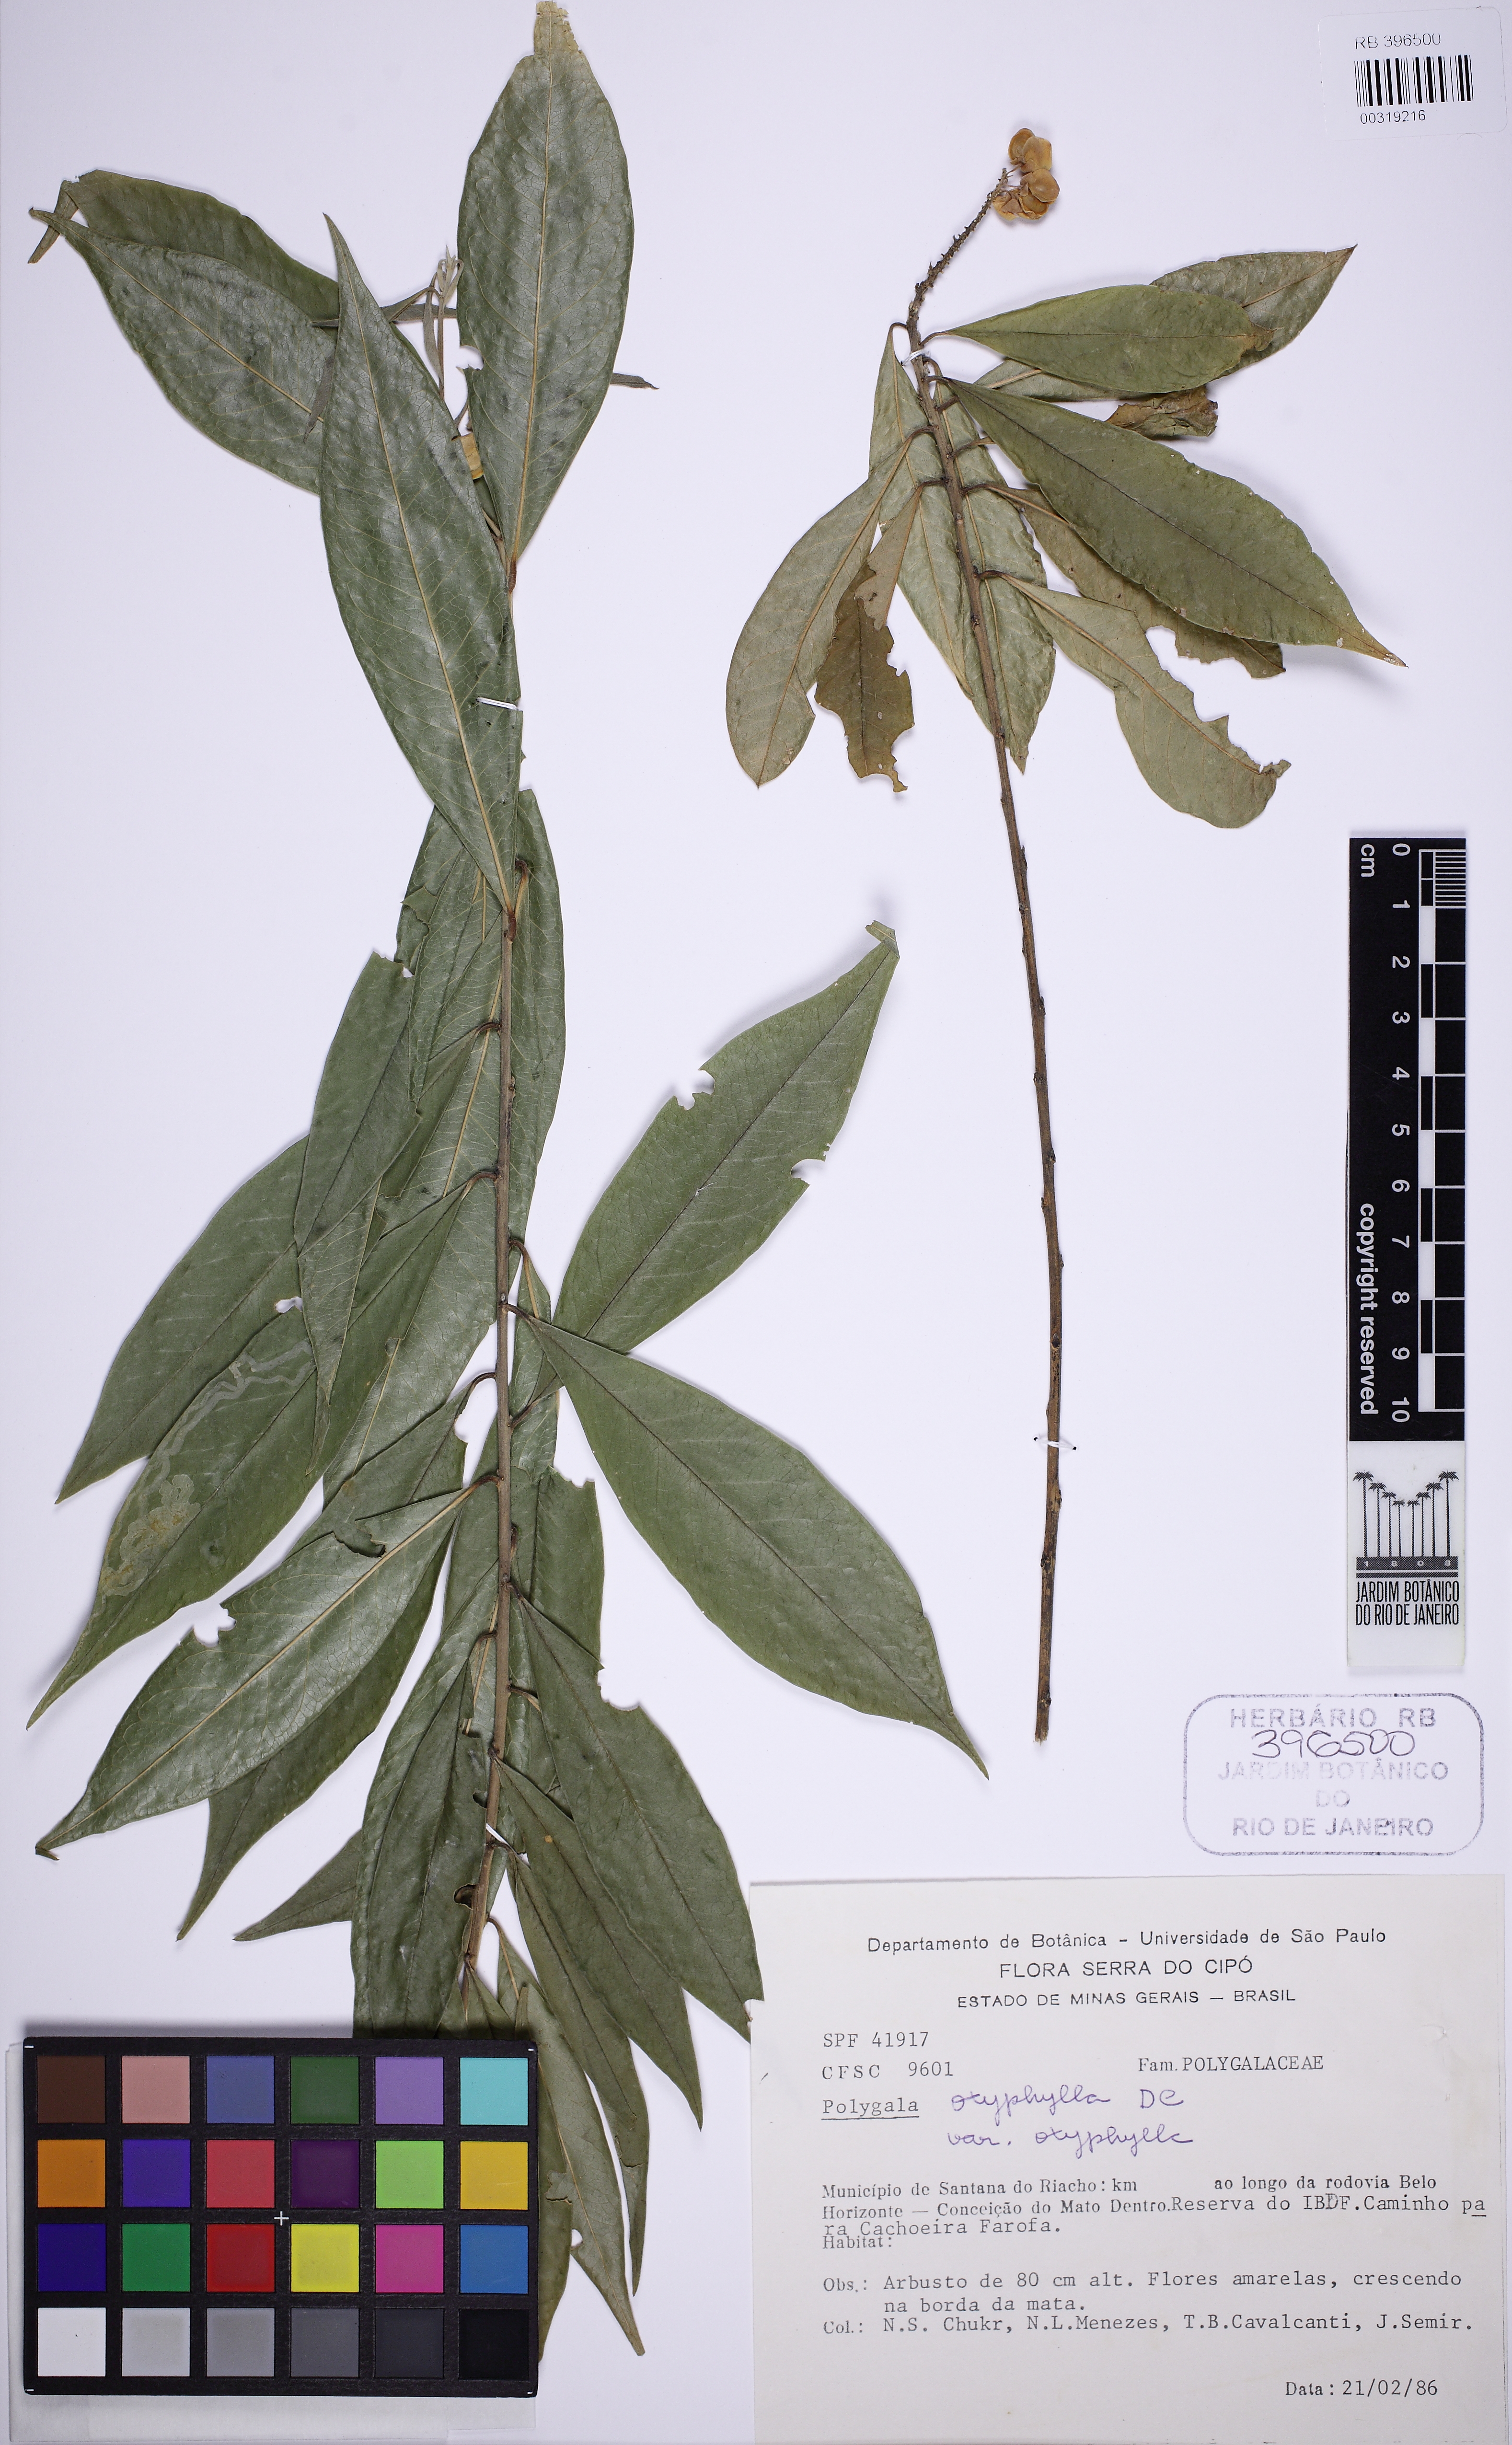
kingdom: Plantae
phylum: Tracheophyta
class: Magnoliopsida
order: Fabales
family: Polygalaceae
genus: Caamembeca
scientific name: Caamembeca
